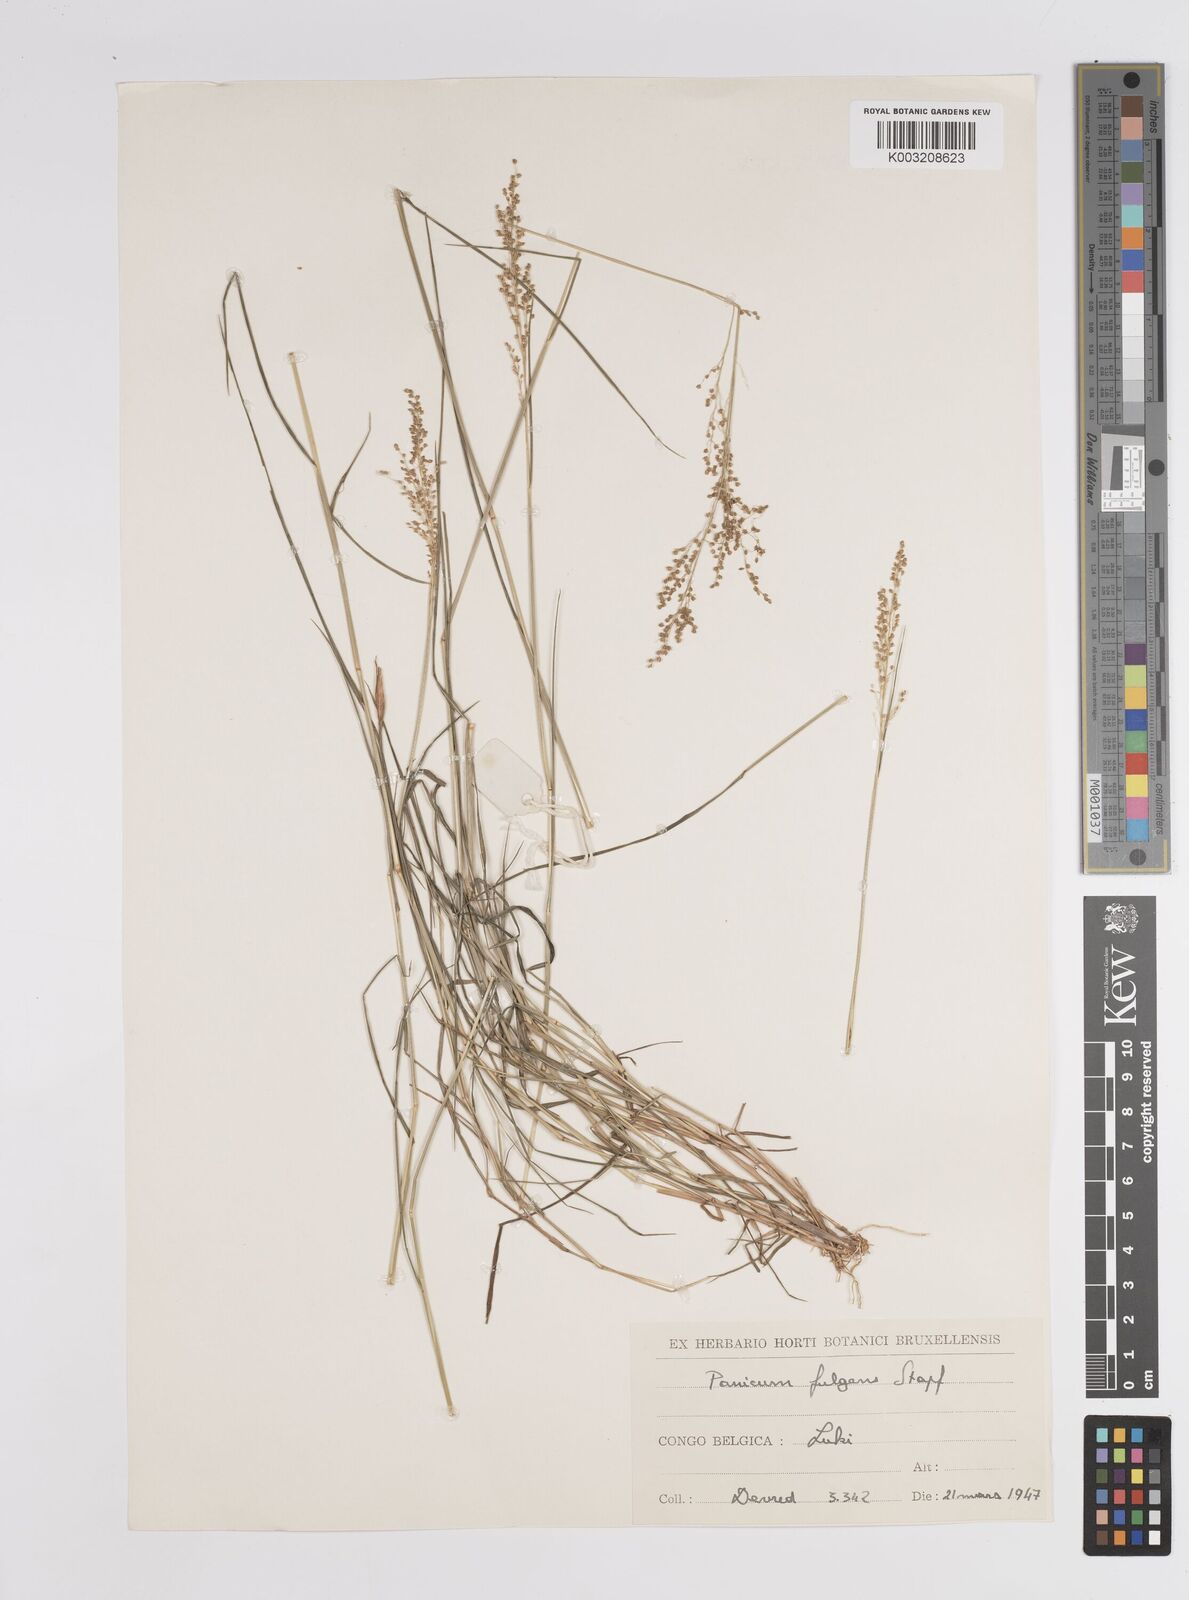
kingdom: Plantae
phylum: Tracheophyta
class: Liliopsida
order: Poales
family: Poaceae
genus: Trichanthecium
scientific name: Trichanthecium nervatum
